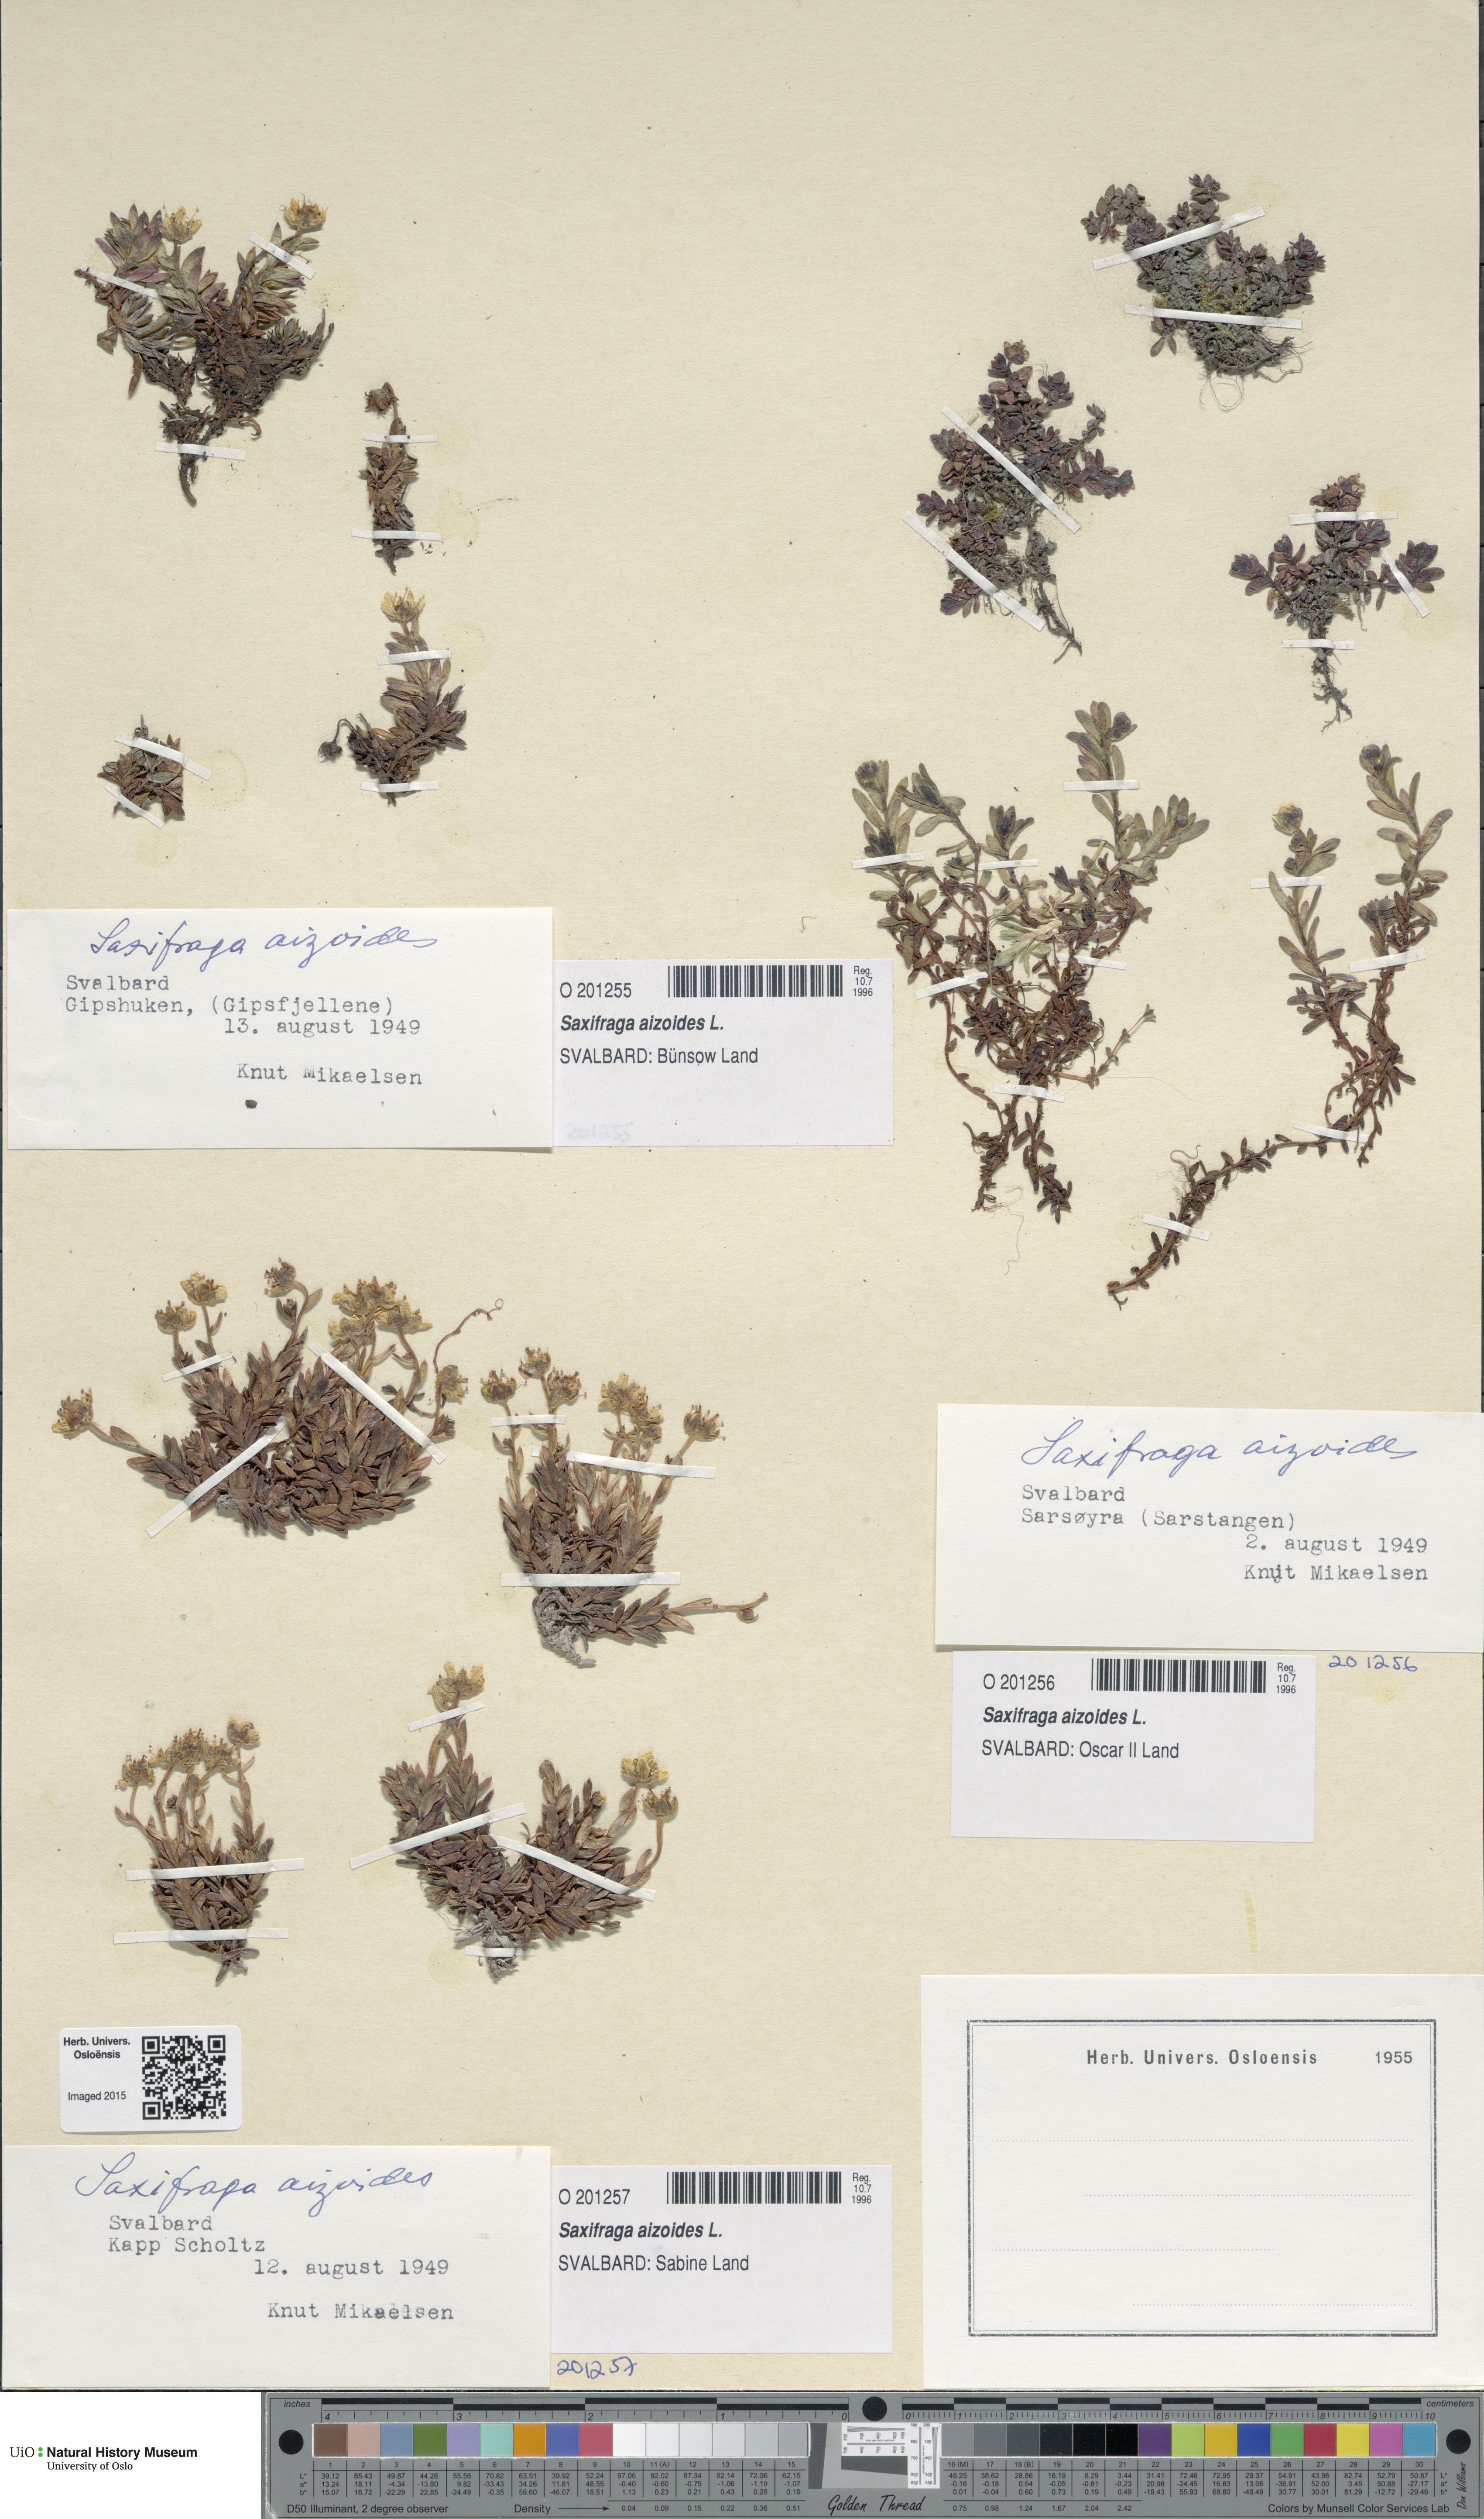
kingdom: Plantae
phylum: Tracheophyta
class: Magnoliopsida
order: Saxifragales
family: Saxifragaceae
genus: Saxifraga
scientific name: Saxifraga aizoides
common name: Yellow mountain saxifrage
